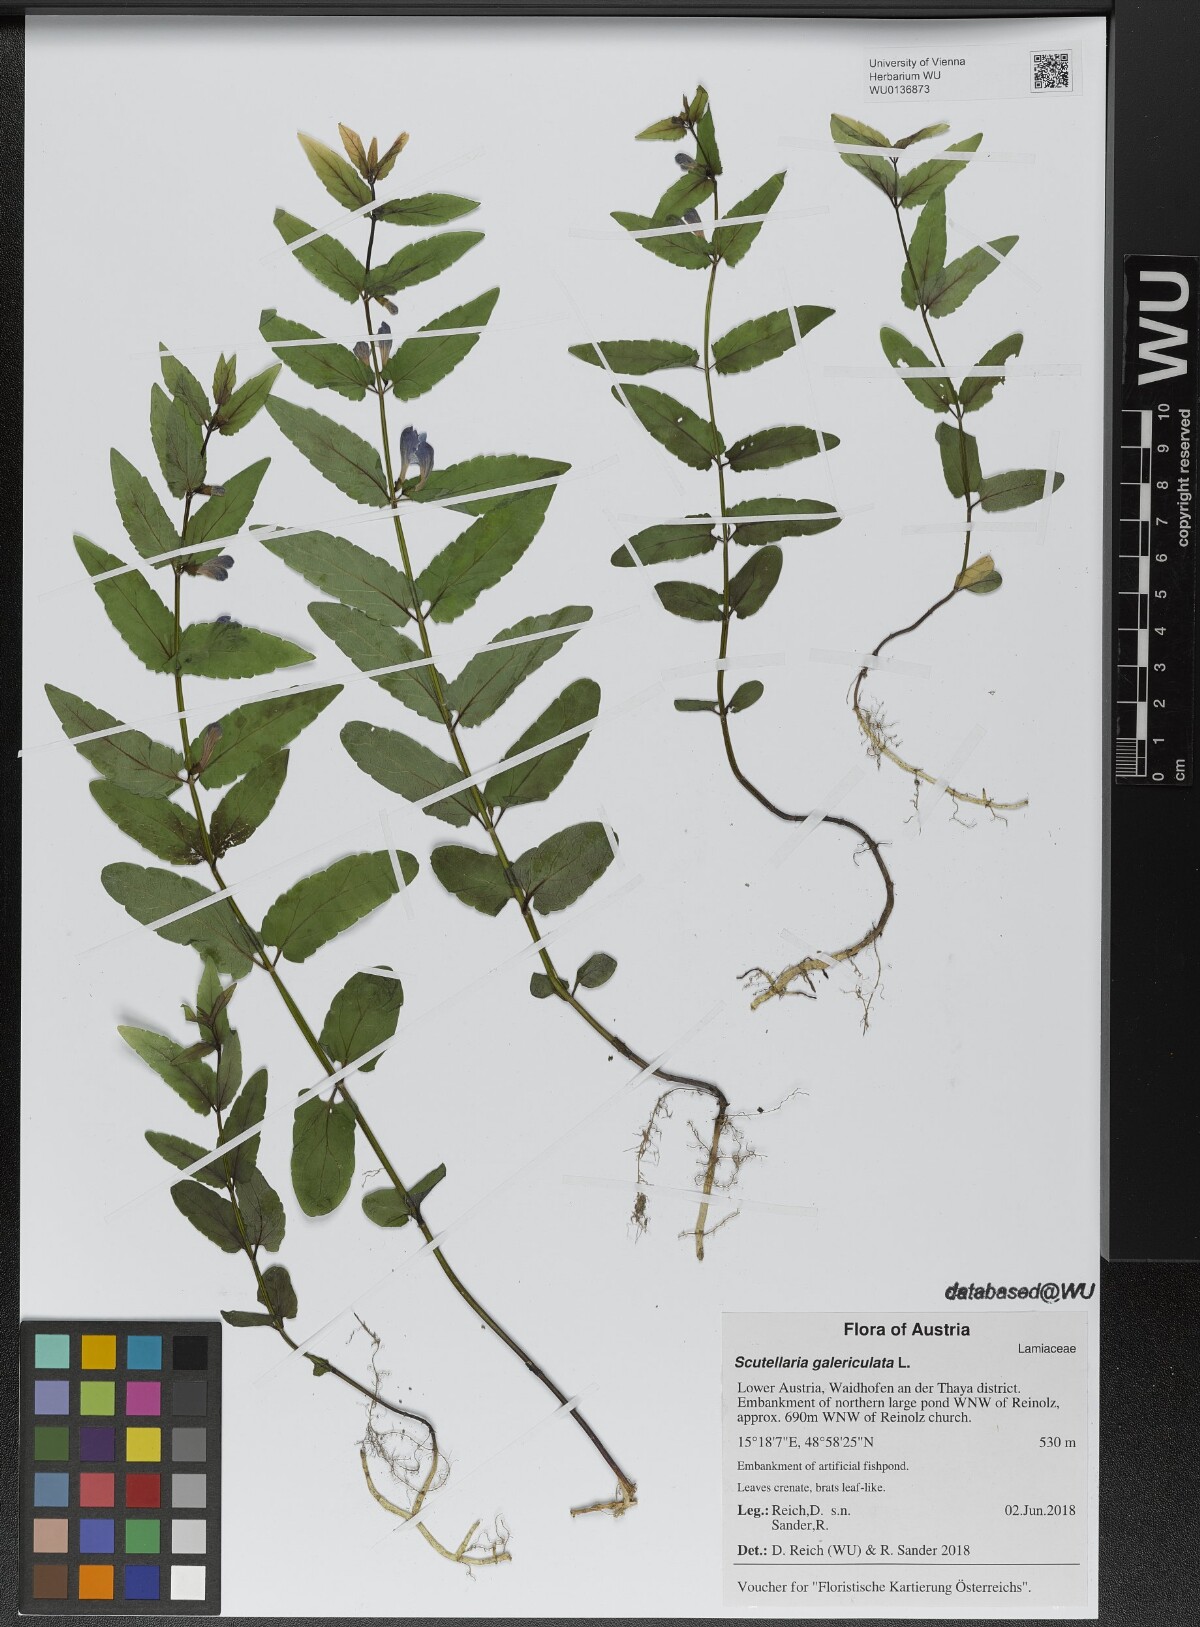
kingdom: Plantae
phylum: Tracheophyta
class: Magnoliopsida
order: Lamiales
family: Lamiaceae
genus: Scutellaria
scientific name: Scutellaria galericulata
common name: Skullcap
